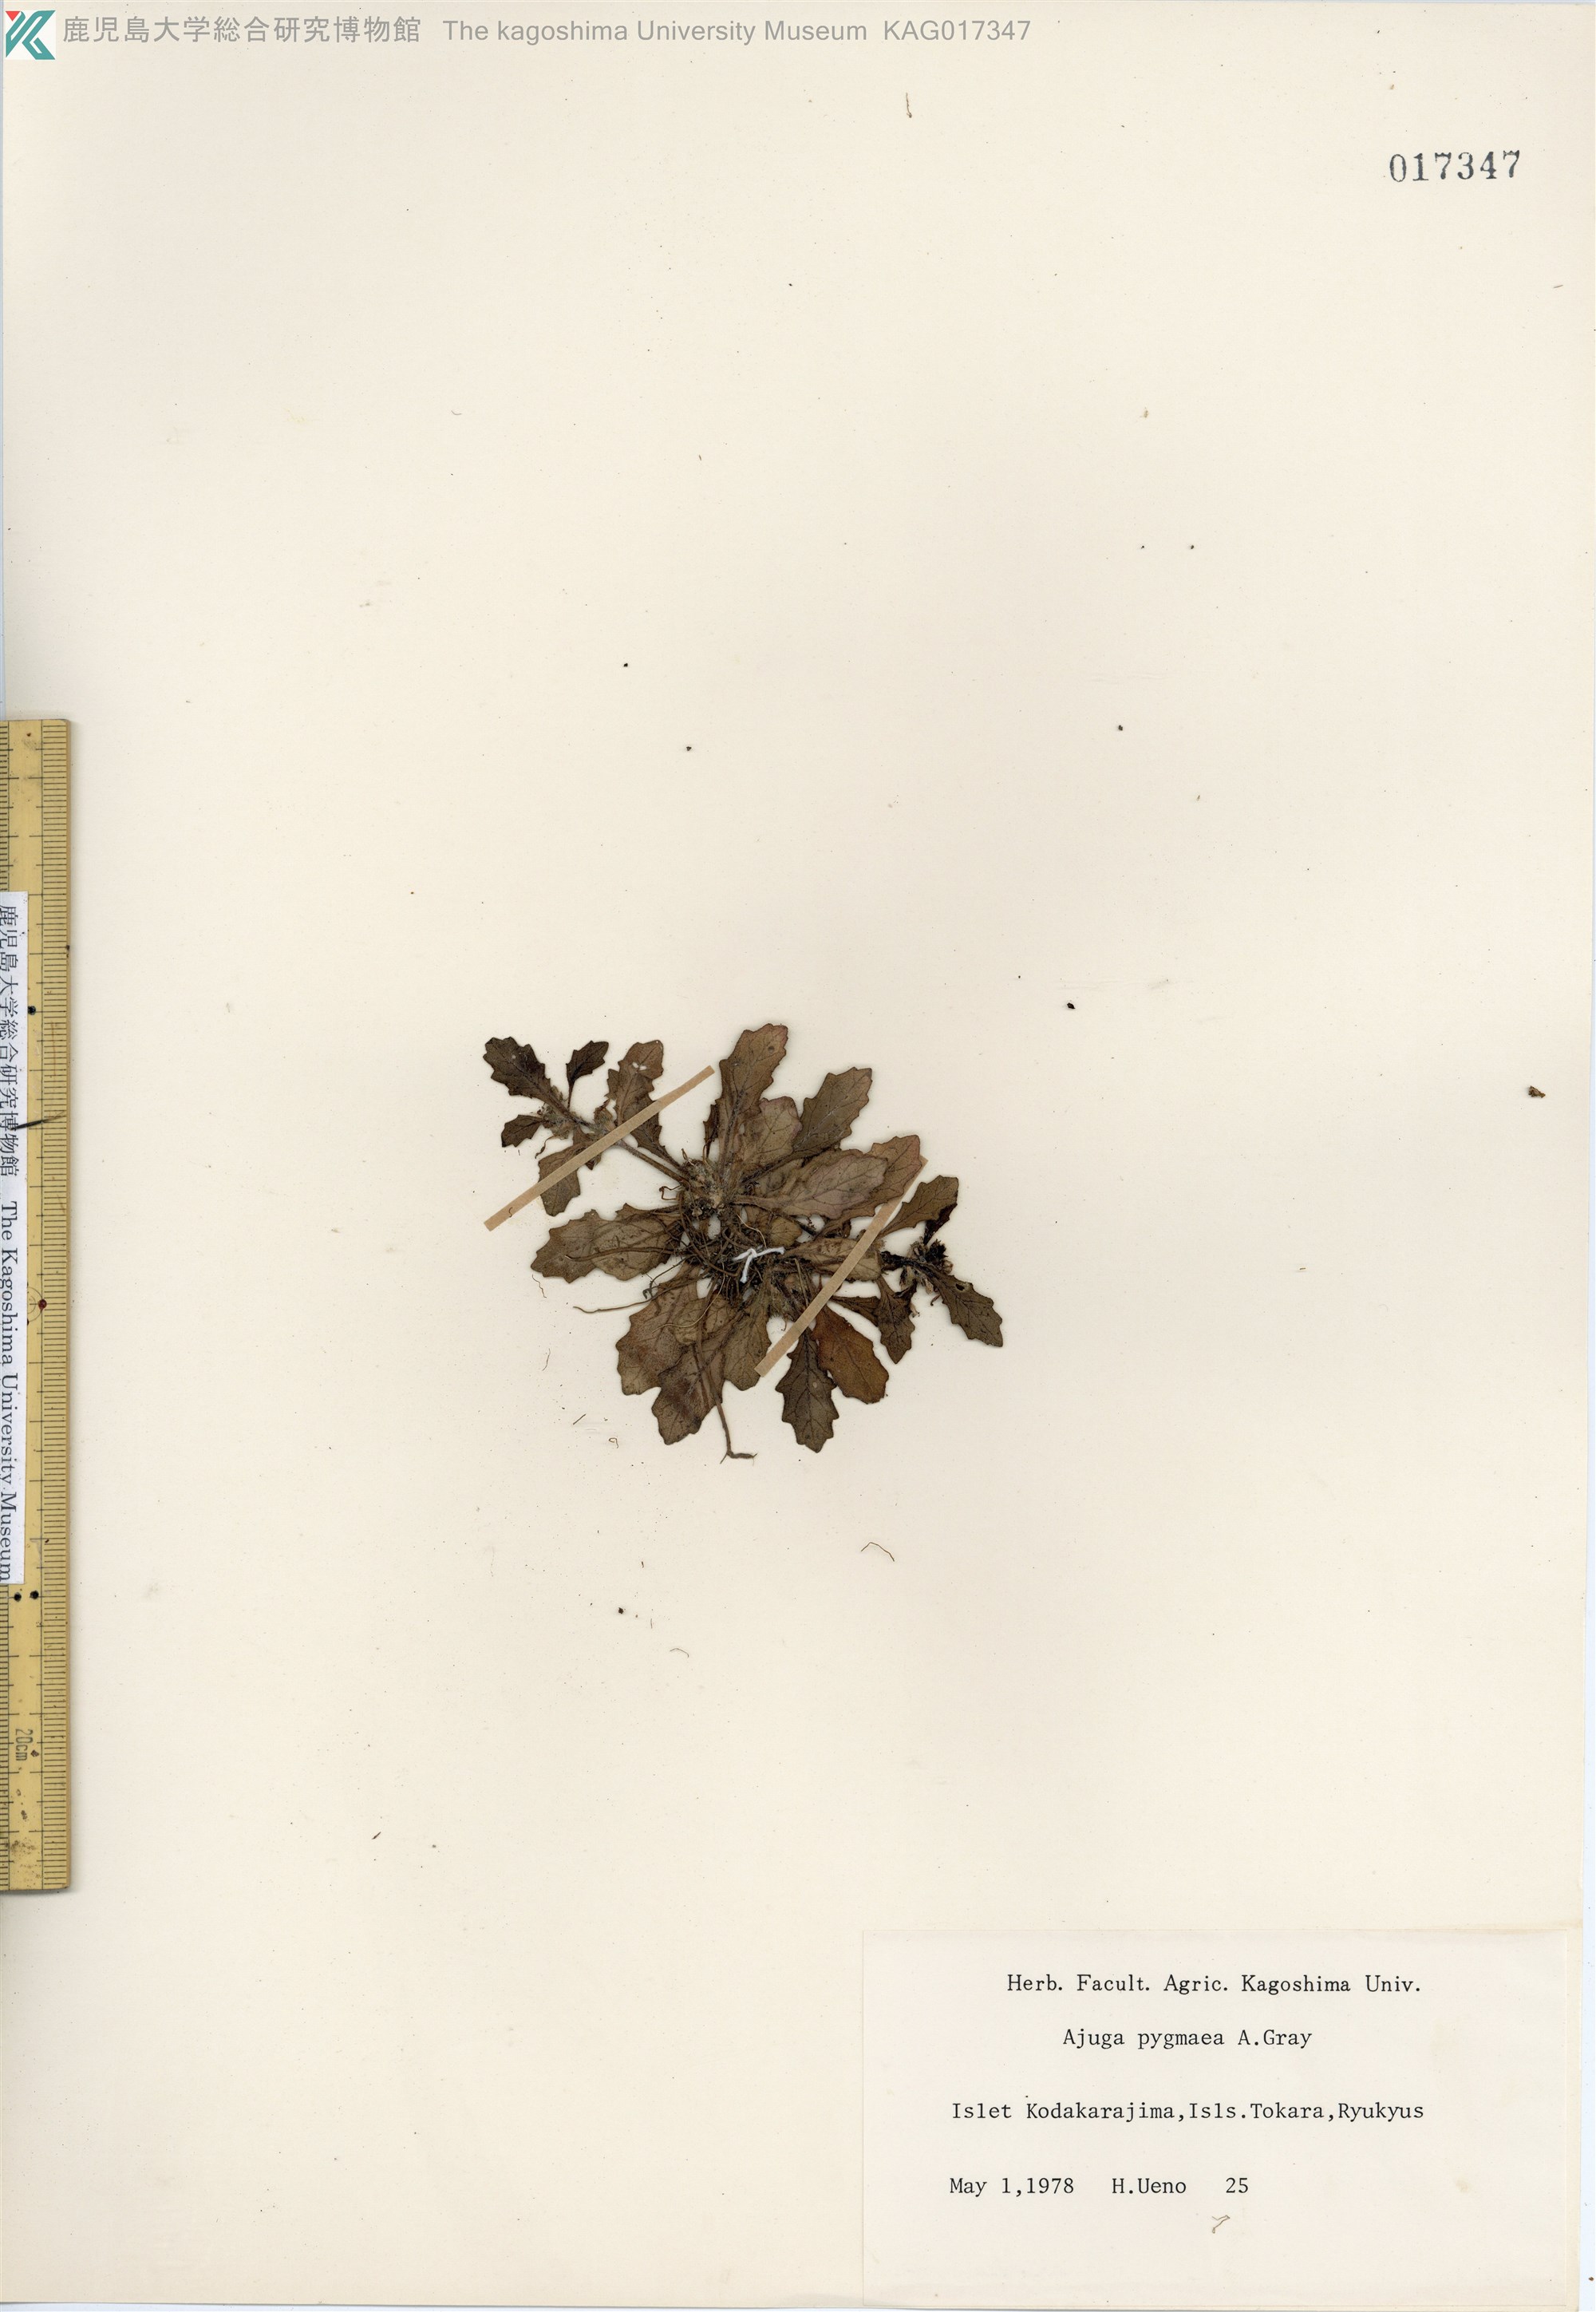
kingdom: Plantae
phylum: Tracheophyta
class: Magnoliopsida
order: Lamiales
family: Lamiaceae
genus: Ajuga
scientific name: Ajuga pygmaea
